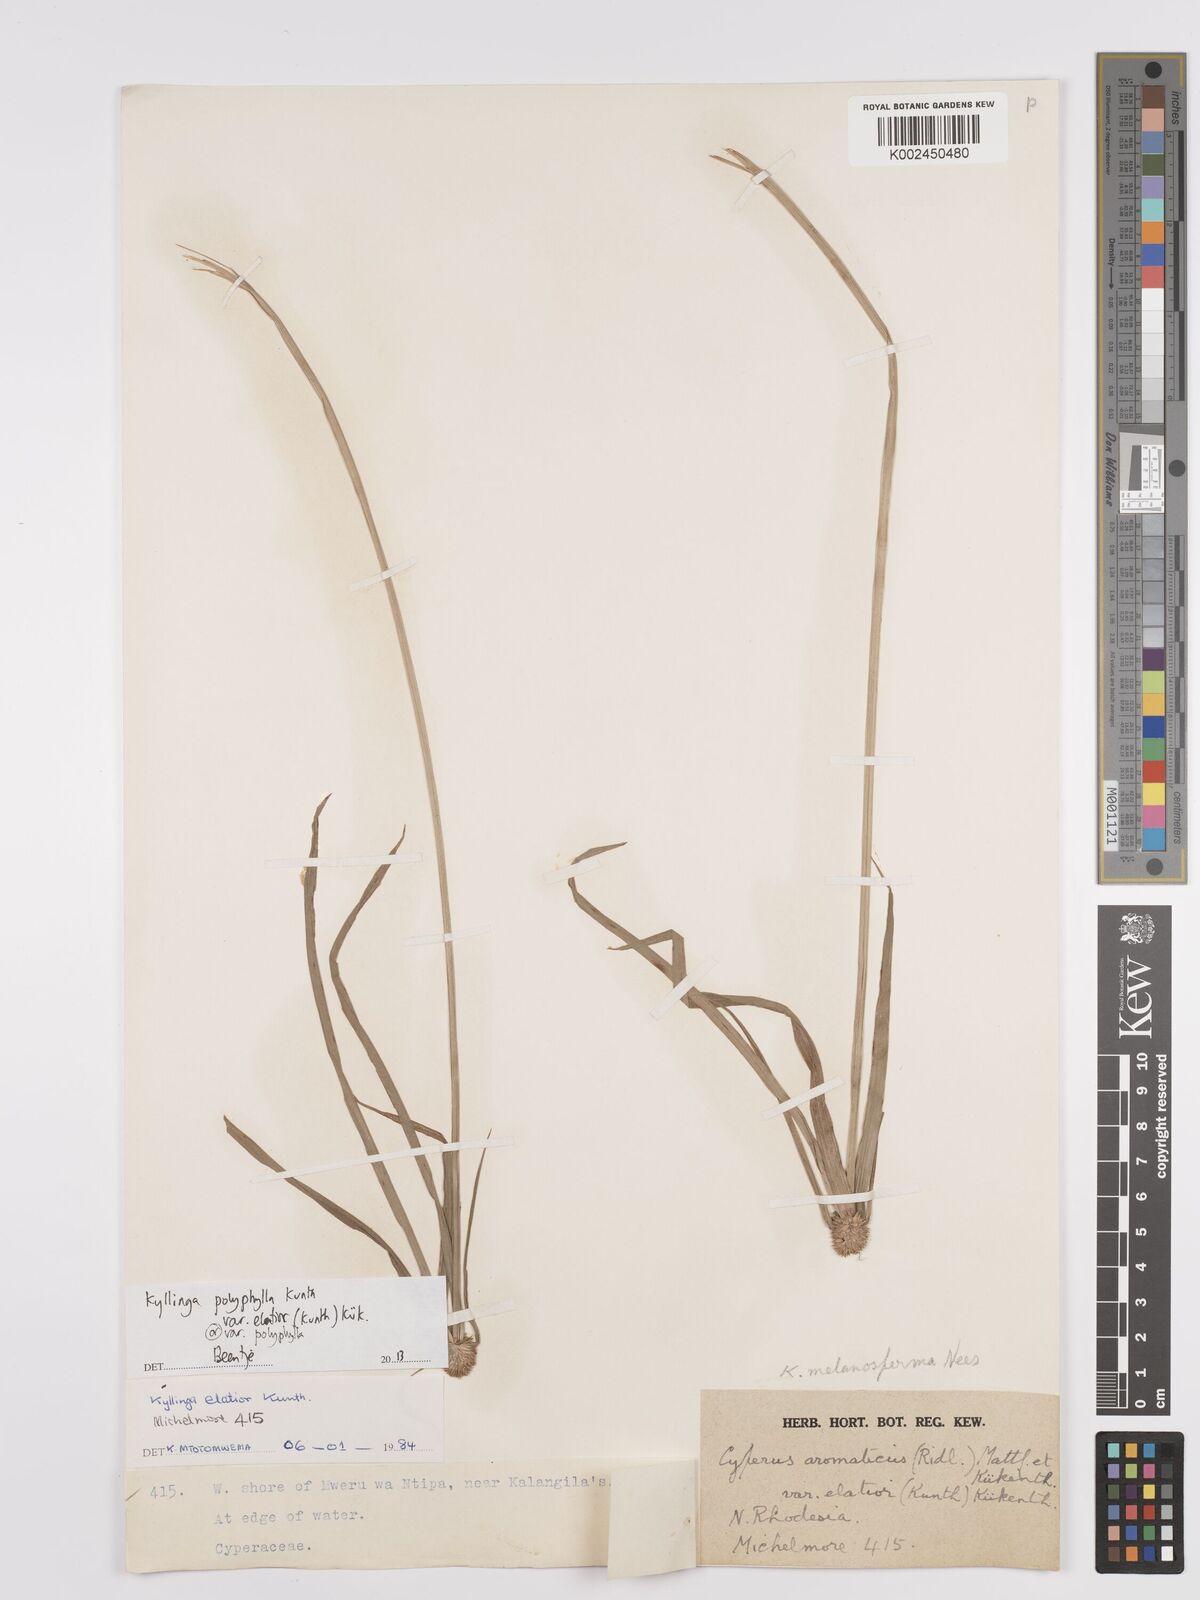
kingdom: Plantae
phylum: Tracheophyta
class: Liliopsida
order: Poales
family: Cyperaceae
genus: Cyperus
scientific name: Cyperus bulbosus
